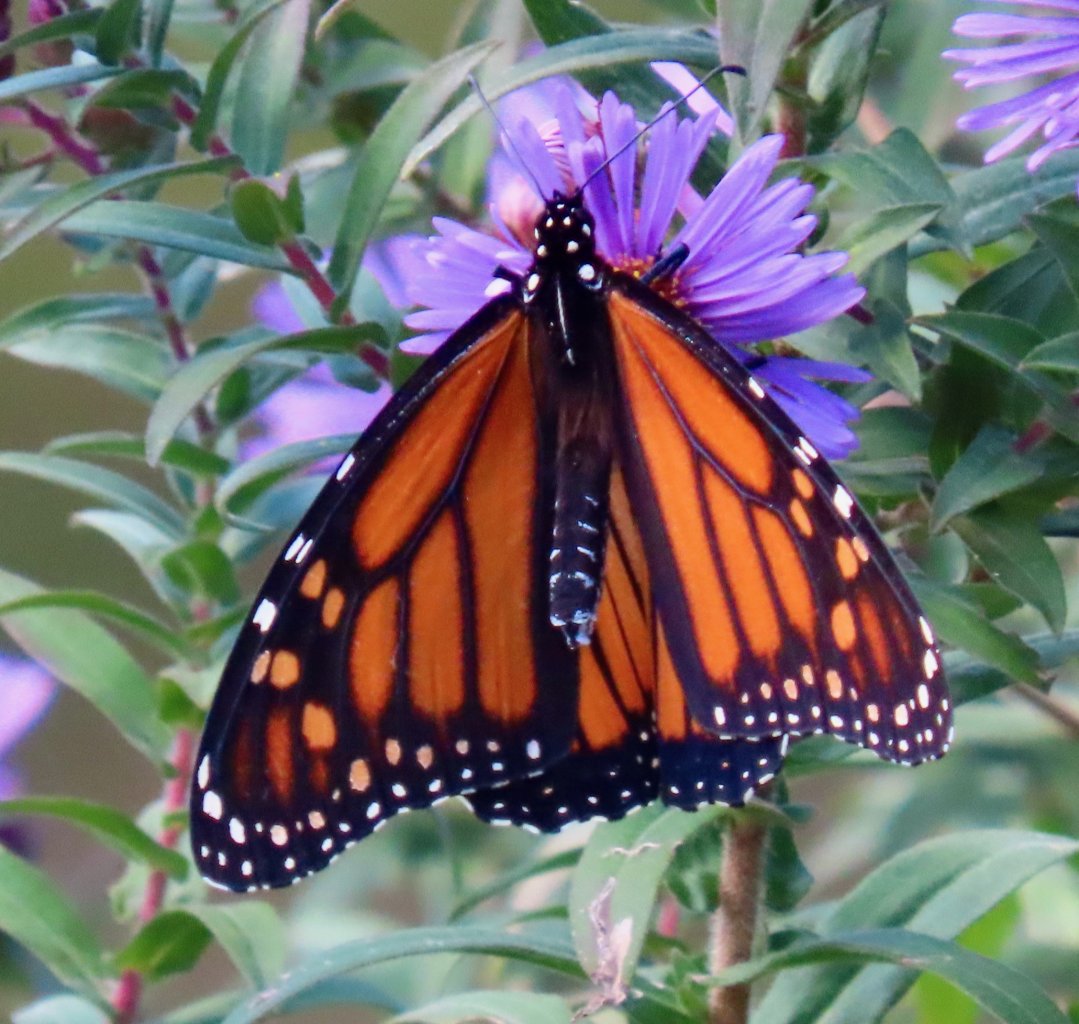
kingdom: Animalia
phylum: Arthropoda
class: Insecta
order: Lepidoptera
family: Nymphalidae
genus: Danaus
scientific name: Danaus plexippus
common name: Monarch
